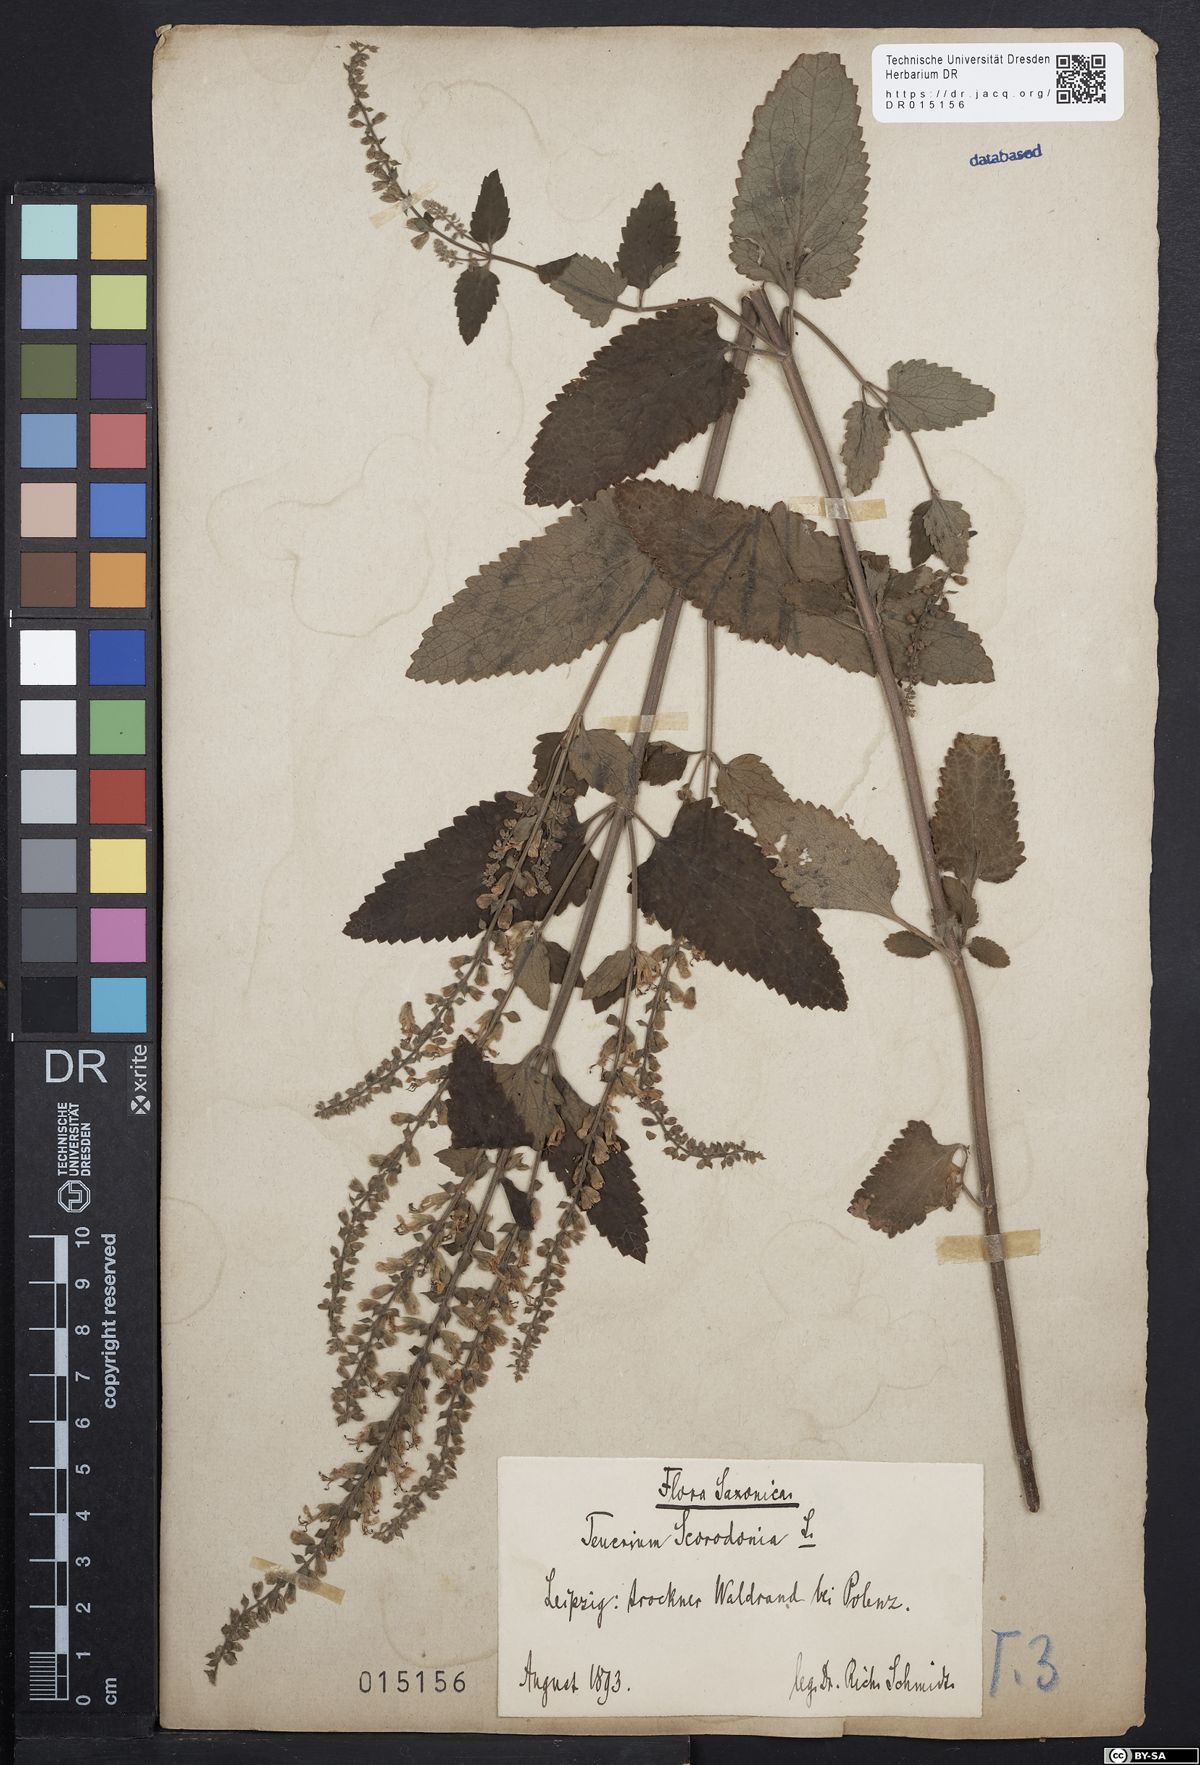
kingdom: Plantae
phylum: Tracheophyta
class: Magnoliopsida
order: Lamiales
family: Lamiaceae
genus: Teucrium
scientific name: Teucrium scorodonia
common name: Woodland germander
